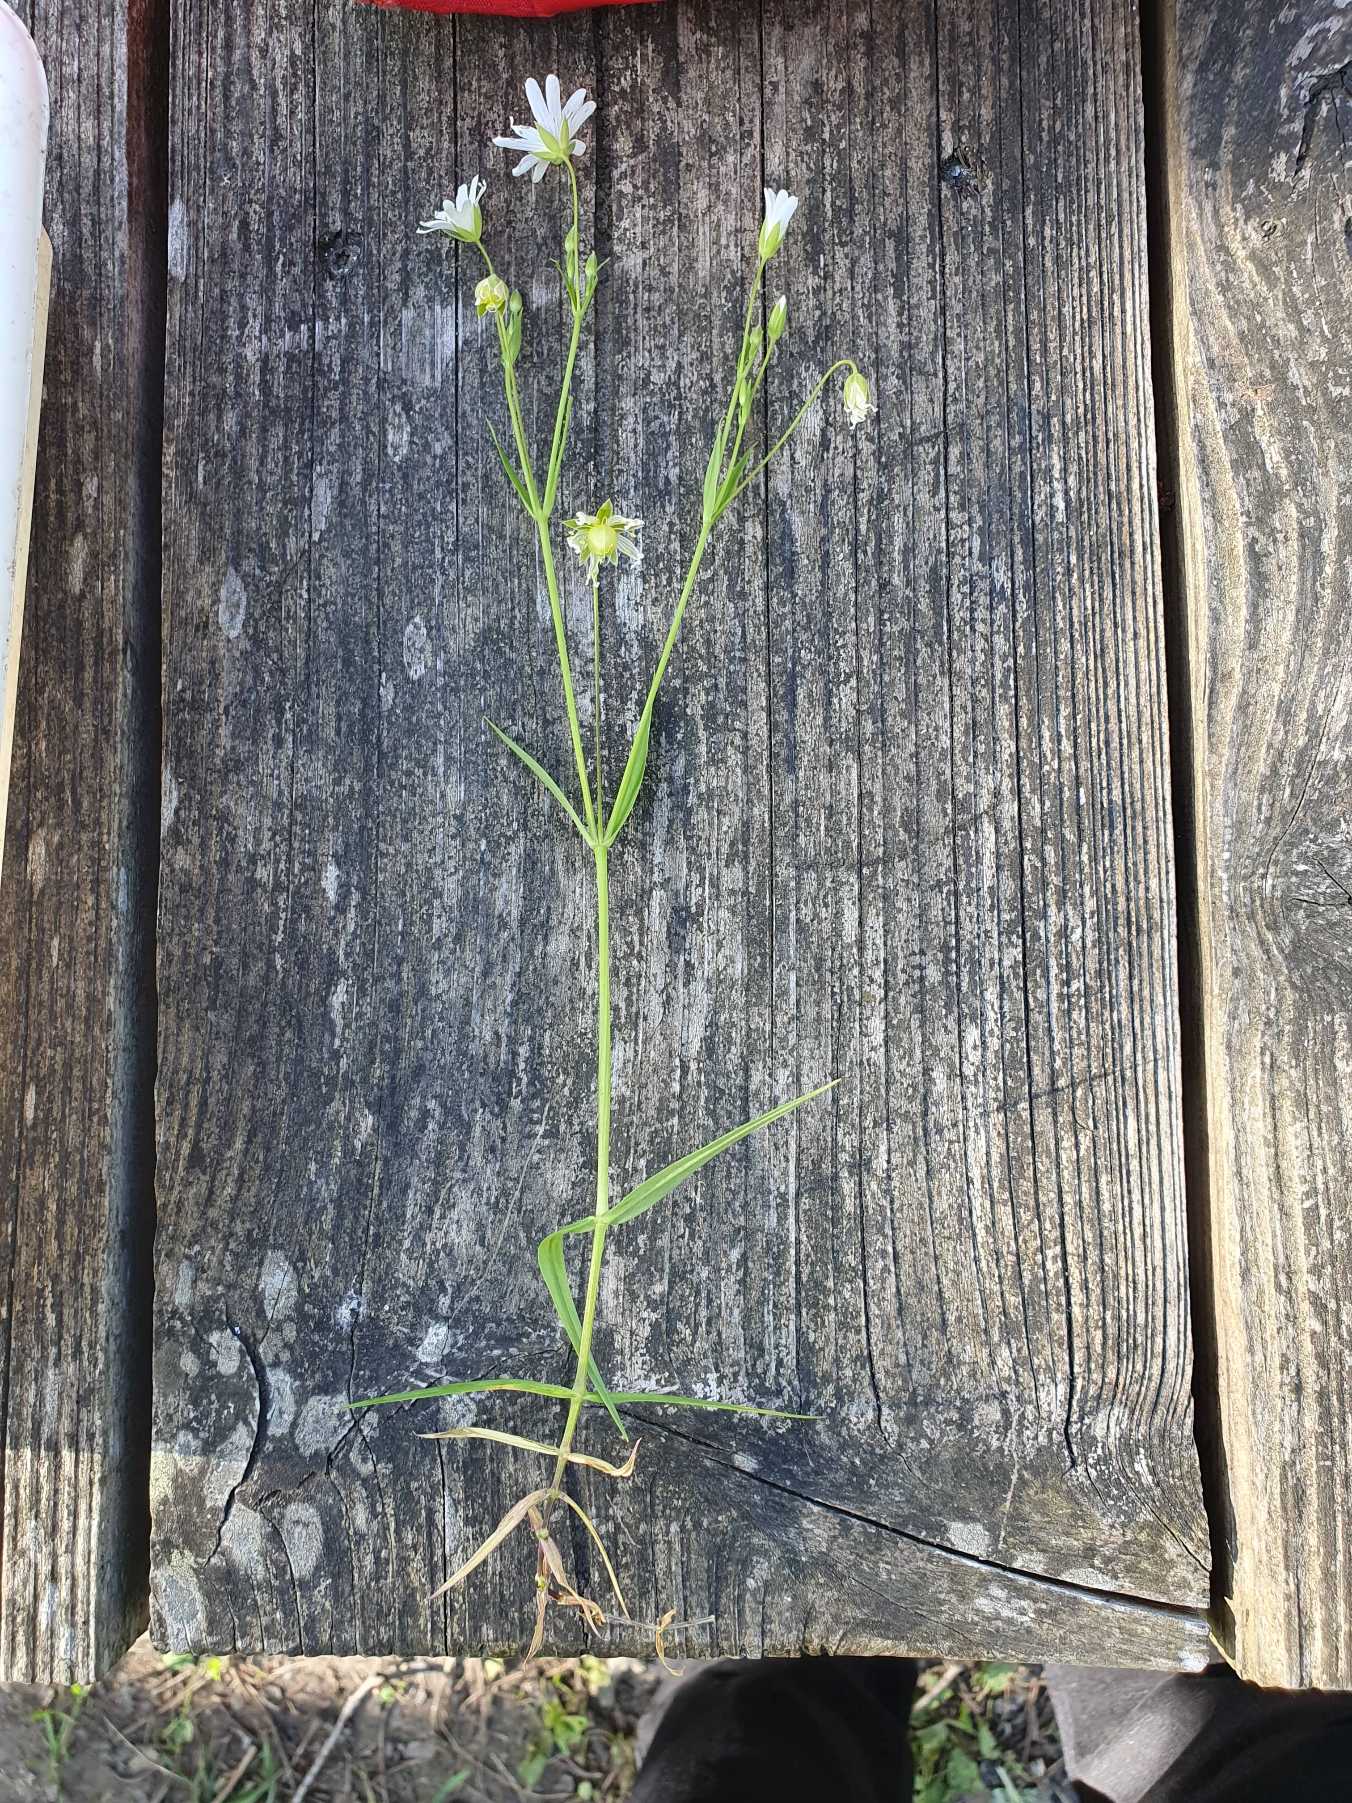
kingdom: Plantae
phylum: Tracheophyta
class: Magnoliopsida
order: Caryophyllales
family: Caryophyllaceae
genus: Rabelera
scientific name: Rabelera holostea
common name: Stor fladstjerne
